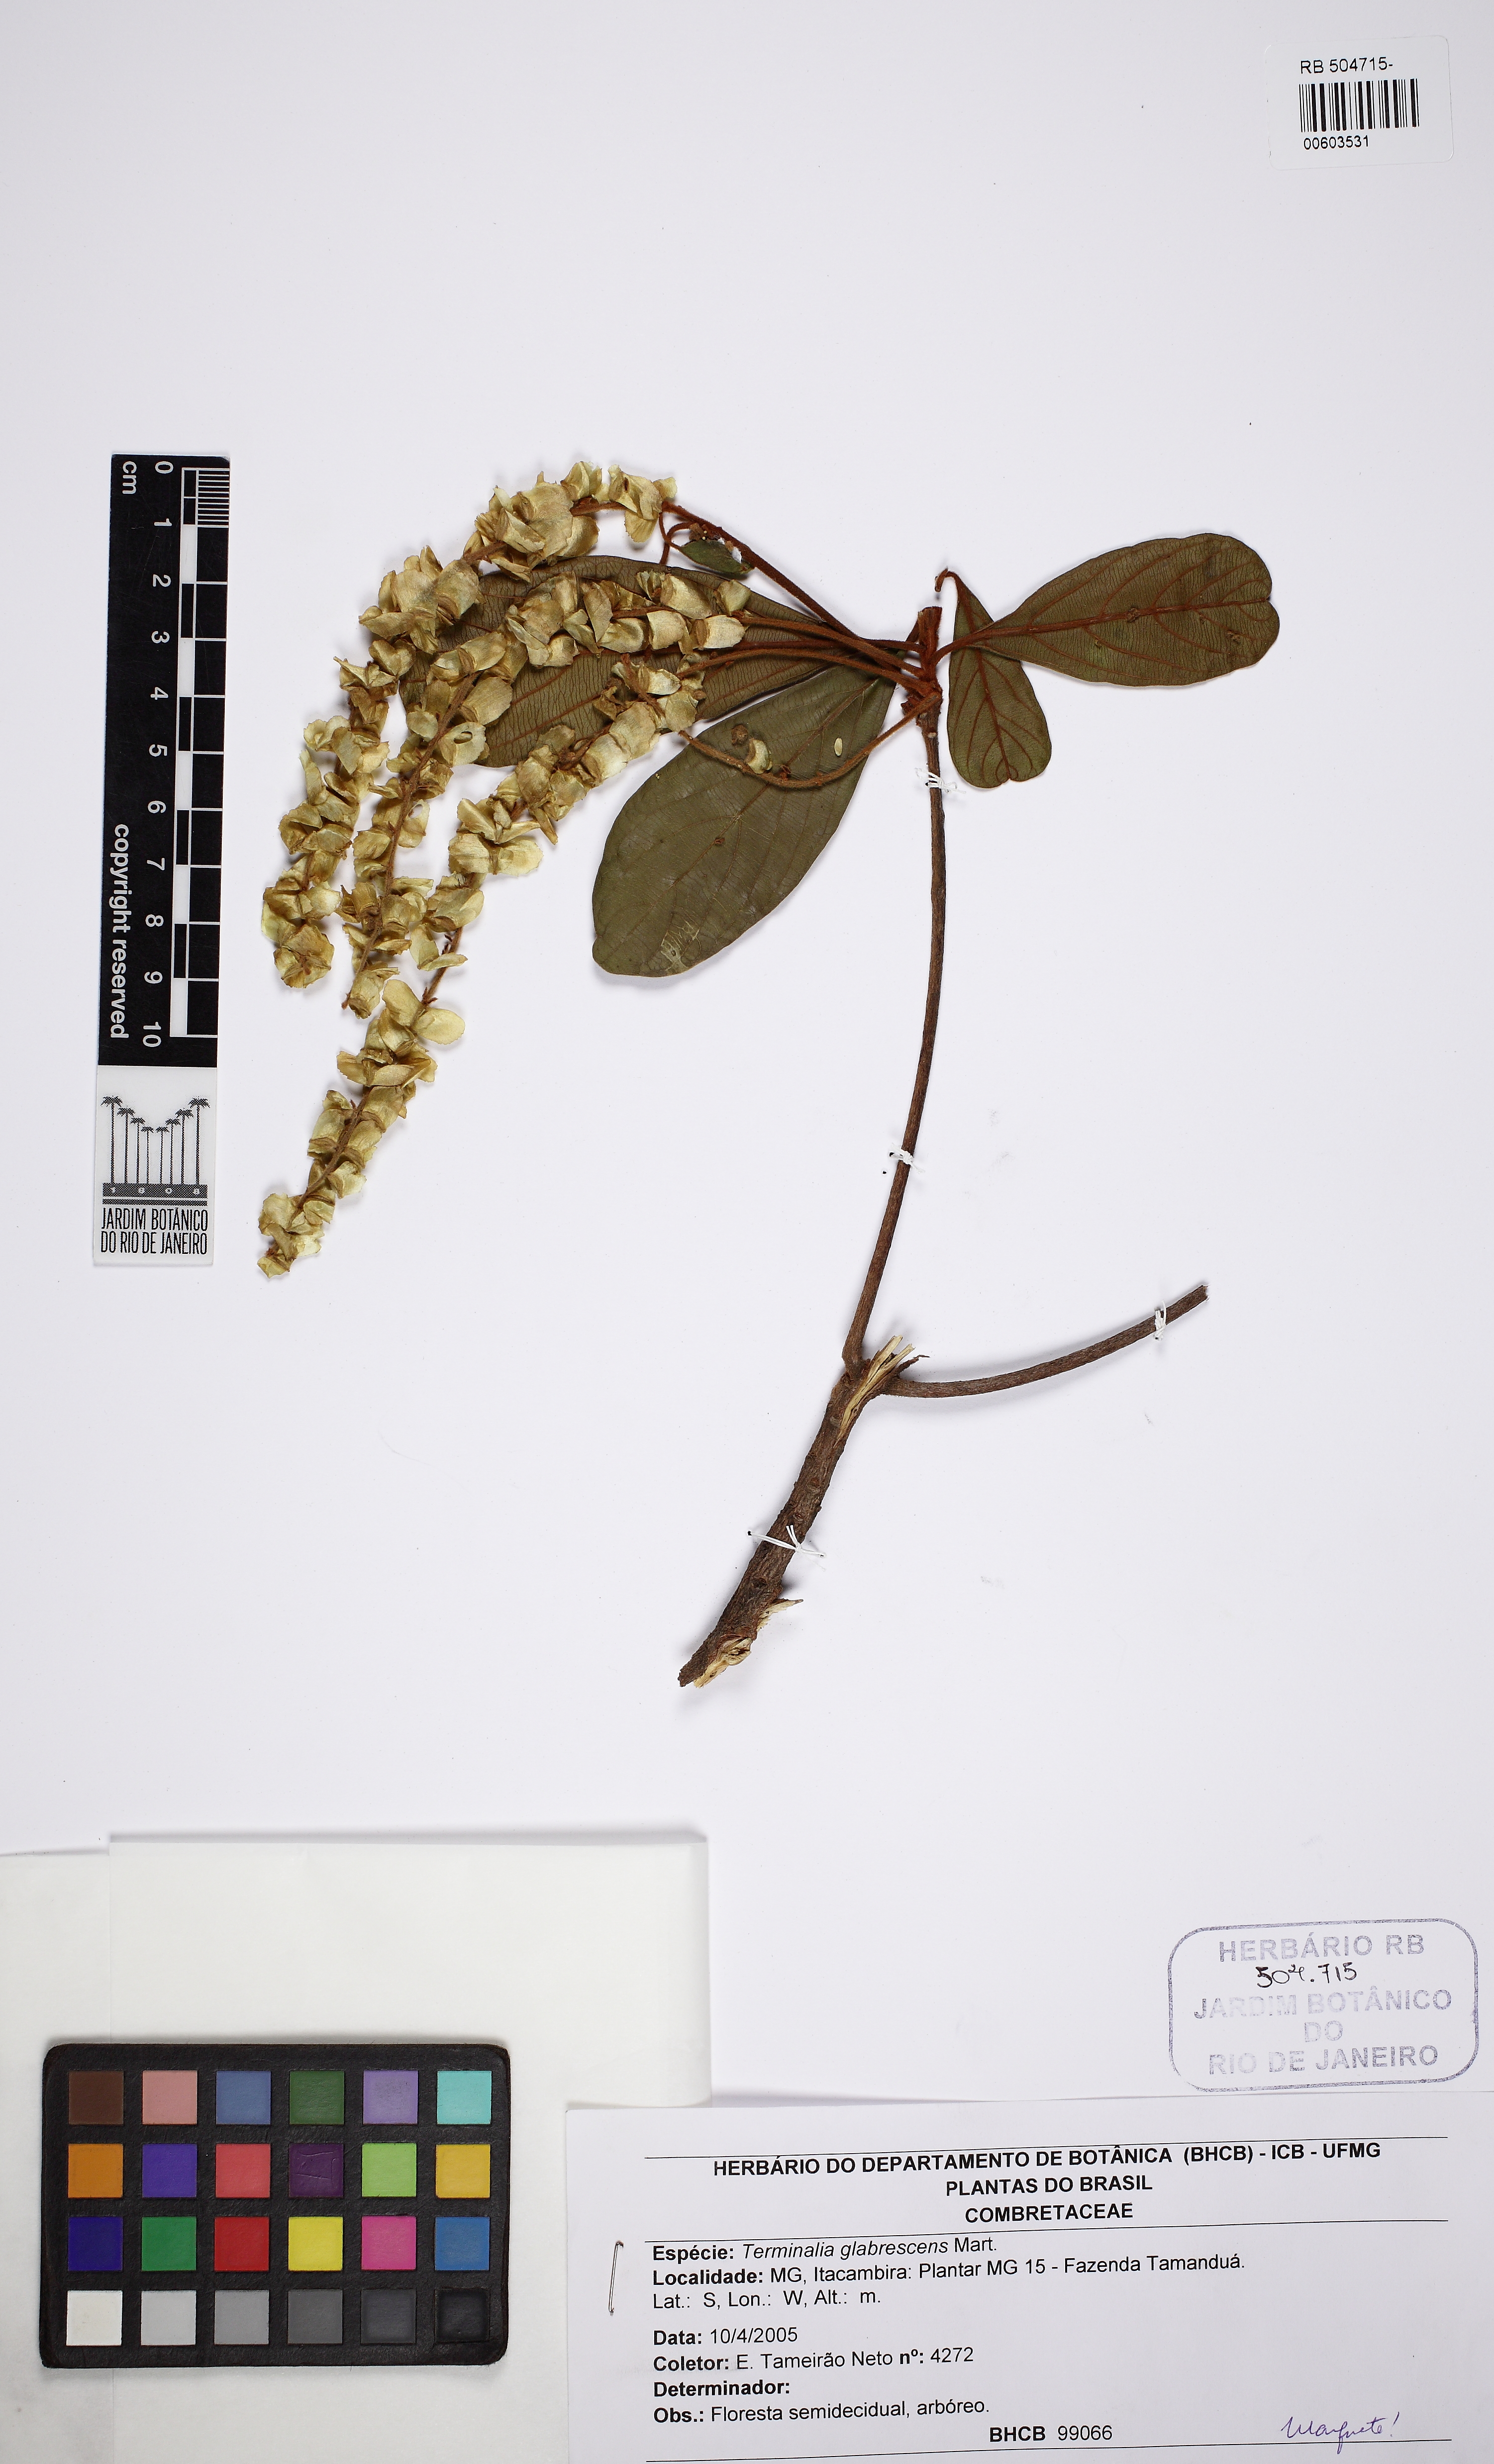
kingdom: Plantae
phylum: Tracheophyta
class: Magnoliopsida
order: Myrtales
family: Combretaceae
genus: Terminalia
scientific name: Terminalia glabrescens
